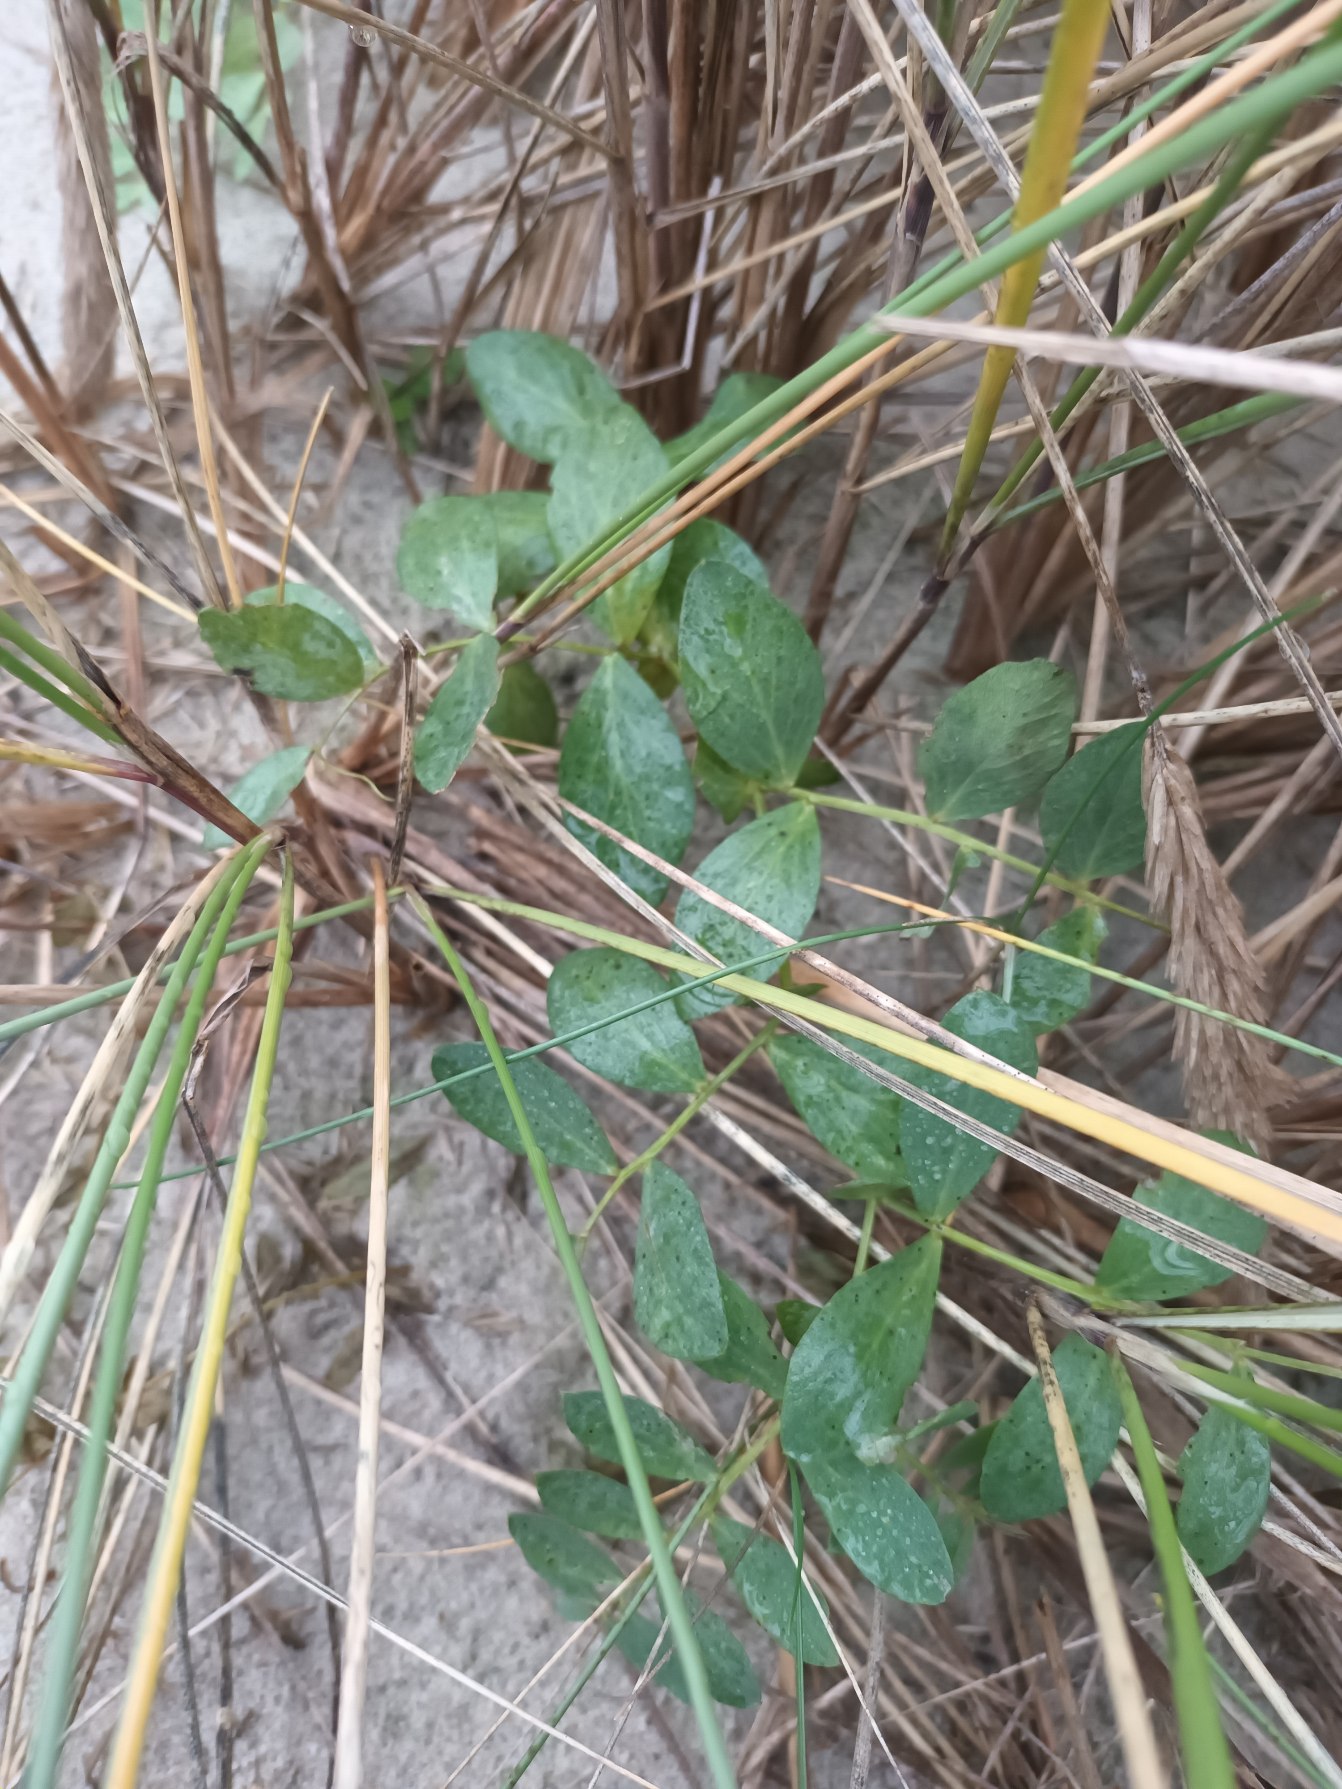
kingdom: Plantae
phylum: Tracheophyta
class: Magnoliopsida
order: Fabales
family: Fabaceae
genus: Lathyrus
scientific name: Lathyrus japonicus
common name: Strand-fladbælg
